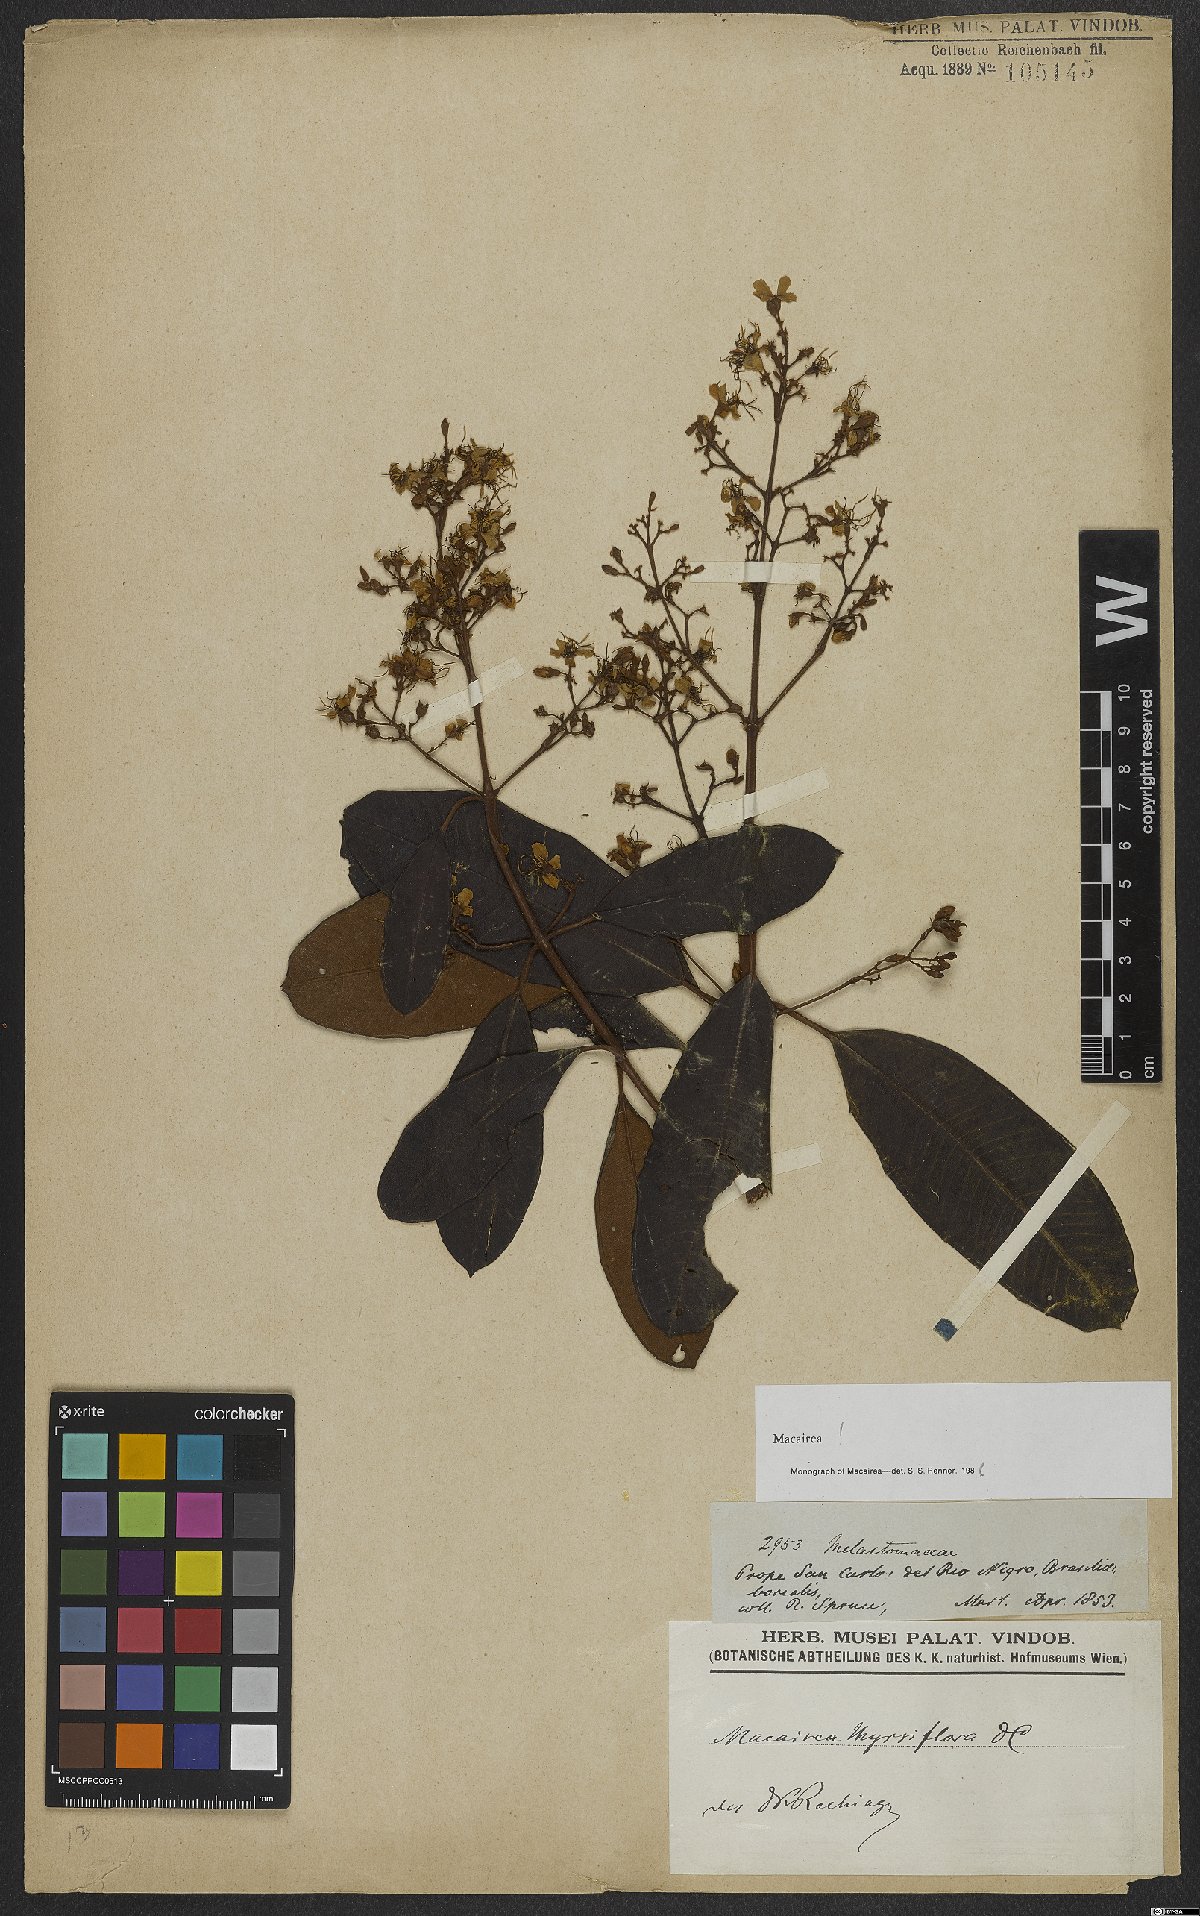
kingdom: Plantae
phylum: Tracheophyta
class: Magnoliopsida
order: Myrtales
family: Melastomataceae
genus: Macairea
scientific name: Macairea thyrsiflora
